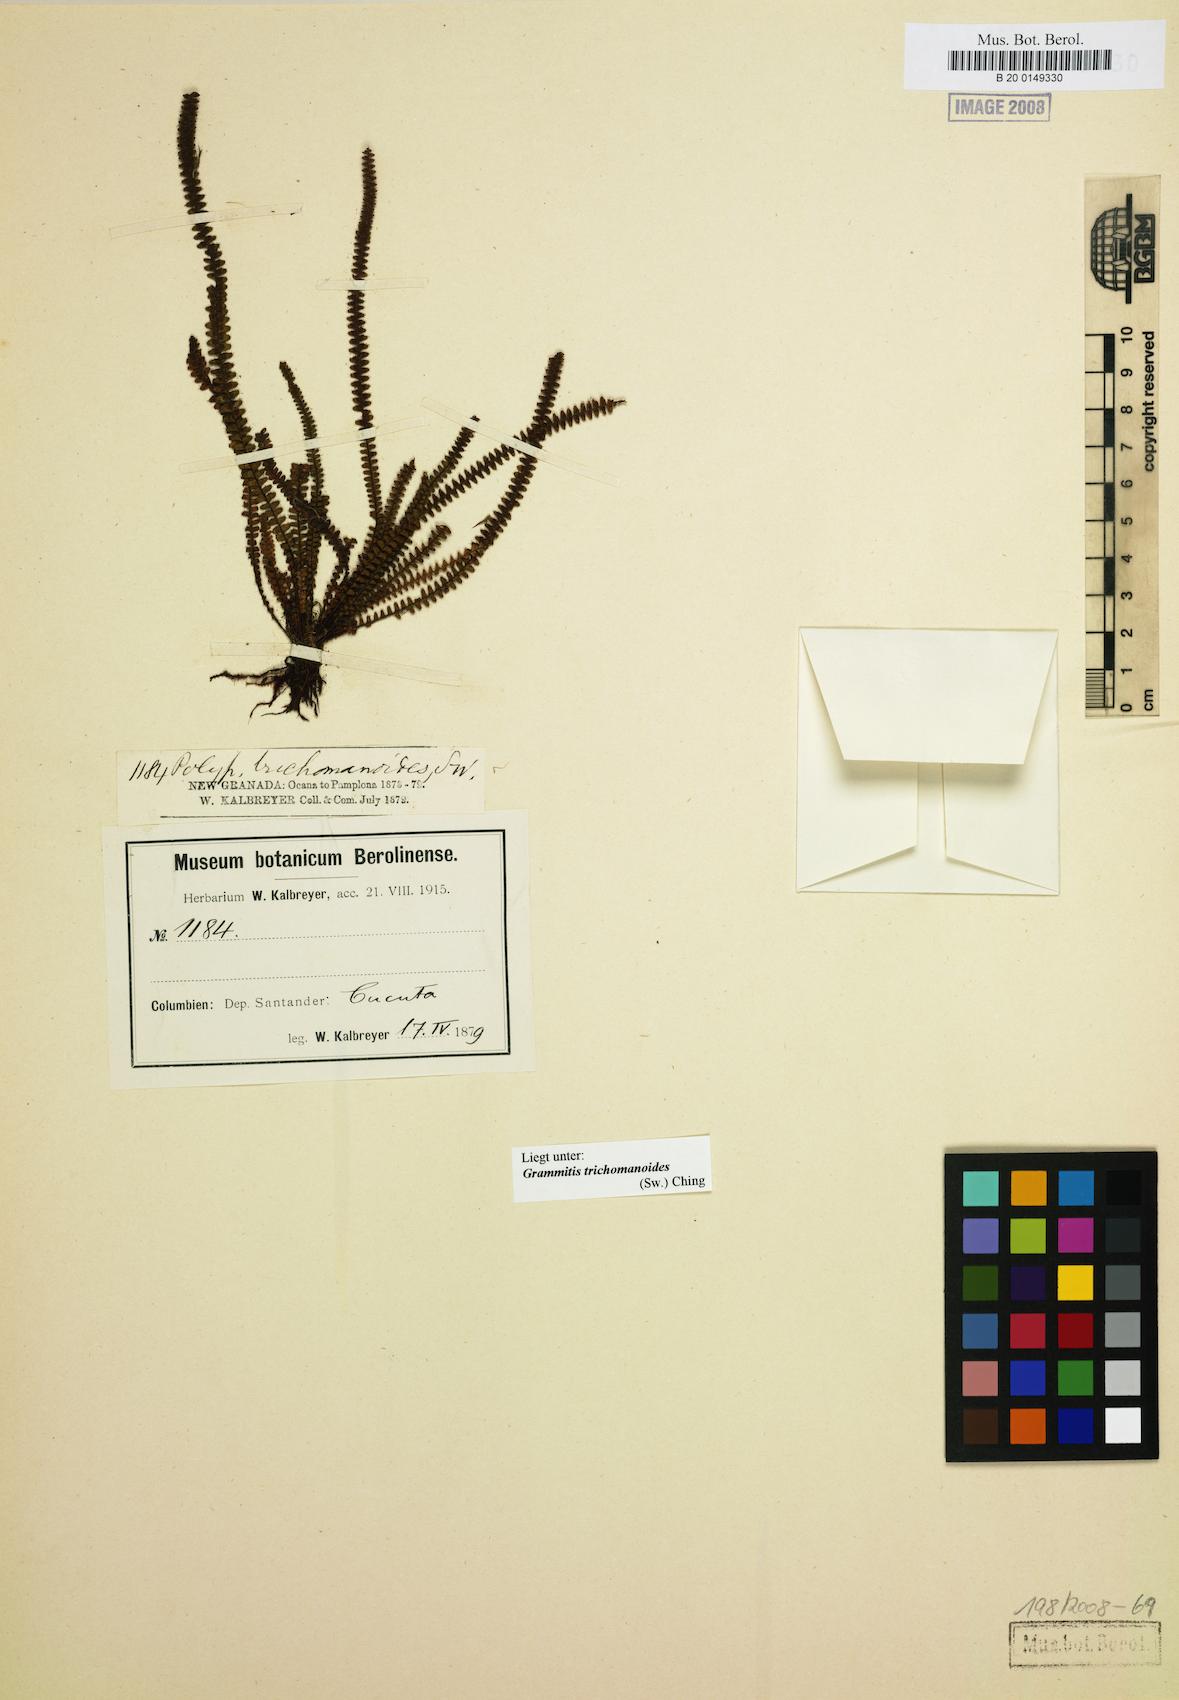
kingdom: Plantae
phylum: Tracheophyta
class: Polypodiopsida
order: Polypodiales
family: Polypodiaceae
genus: Moranopteris
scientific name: Moranopteris taenifolia
